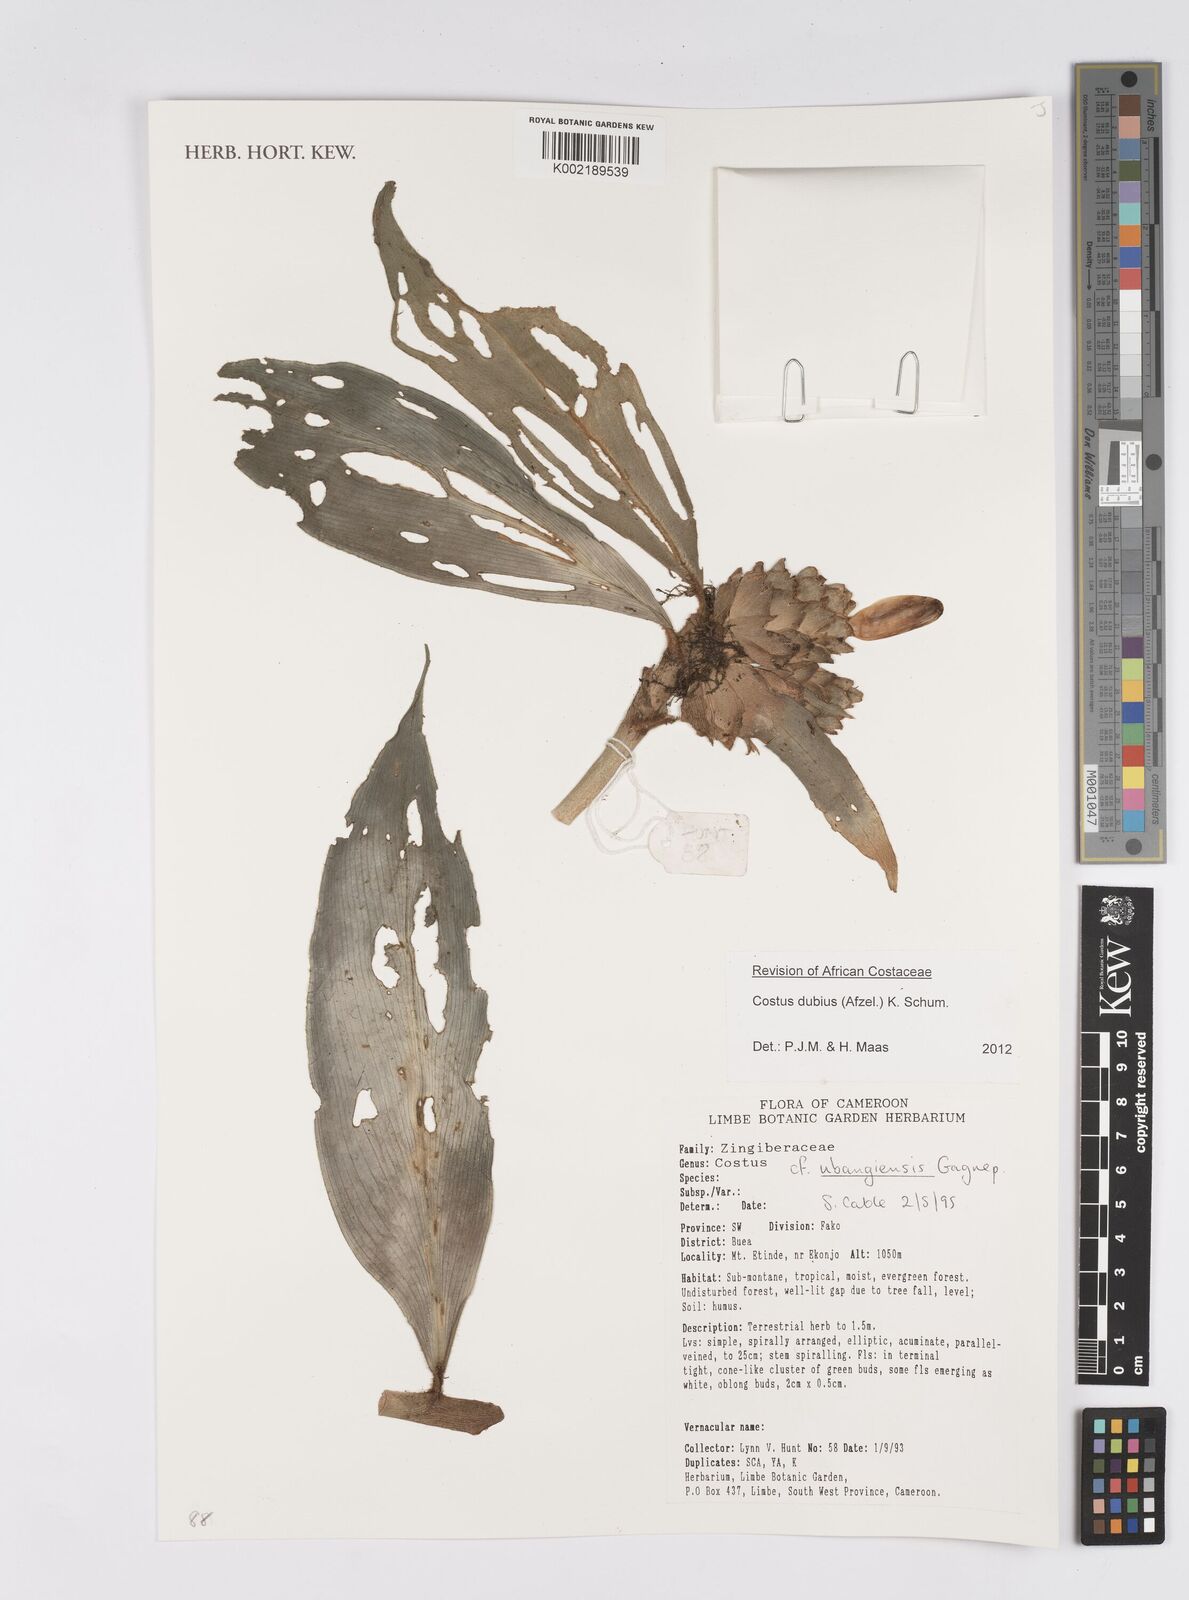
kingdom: Plantae
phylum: Tracheophyta
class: Liliopsida
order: Zingiberales
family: Costaceae
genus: Costus
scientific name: Costus dubius
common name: Costus
